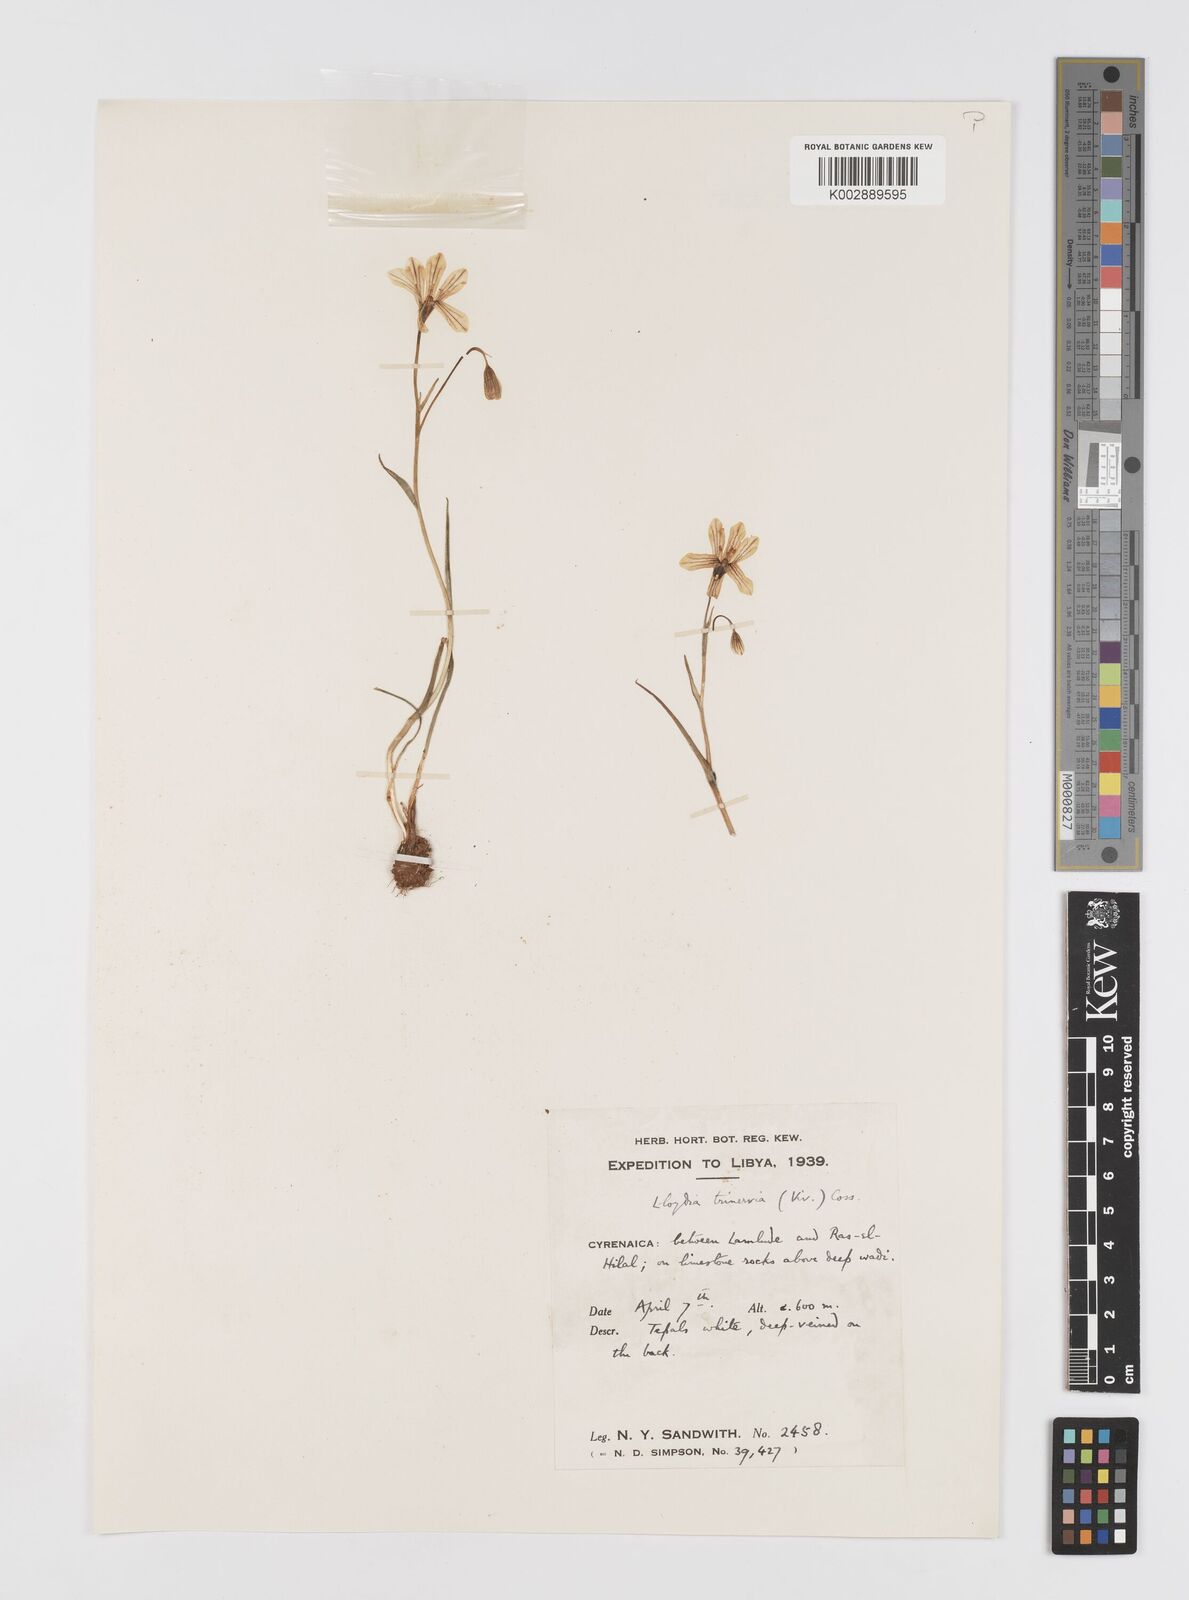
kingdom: Plantae
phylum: Tracheophyta
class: Liliopsida
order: Liliales
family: Liliaceae
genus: Gagea
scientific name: Gagea trinervia
